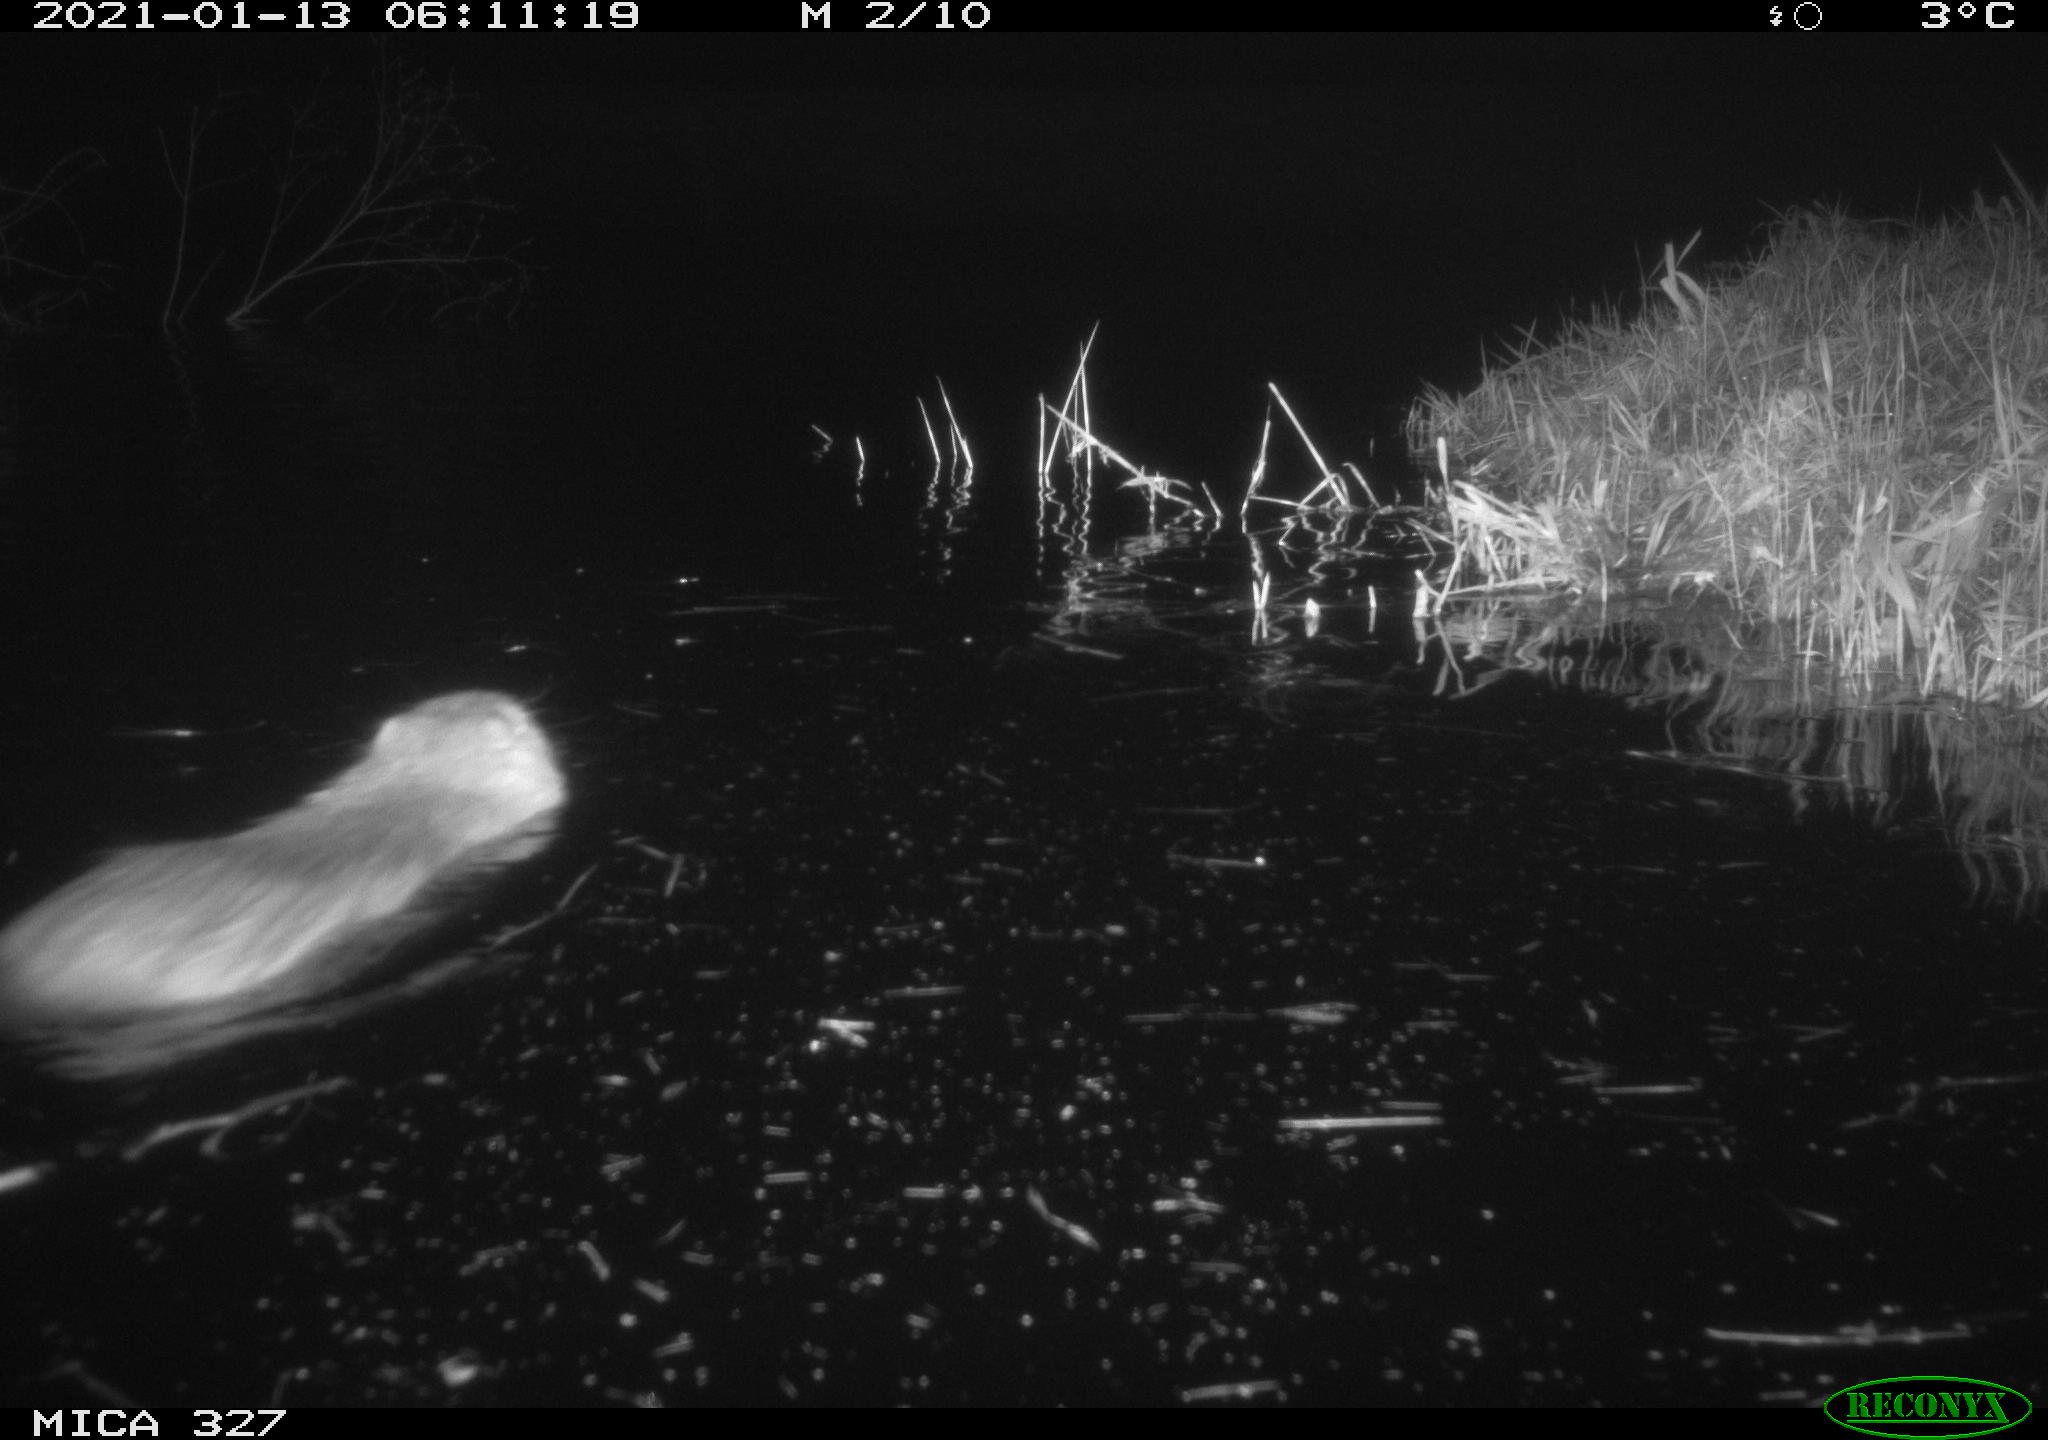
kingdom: Animalia
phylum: Chordata
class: Mammalia
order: Rodentia
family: Myocastoridae
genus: Myocastor
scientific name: Myocastor coypus
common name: Coypu
